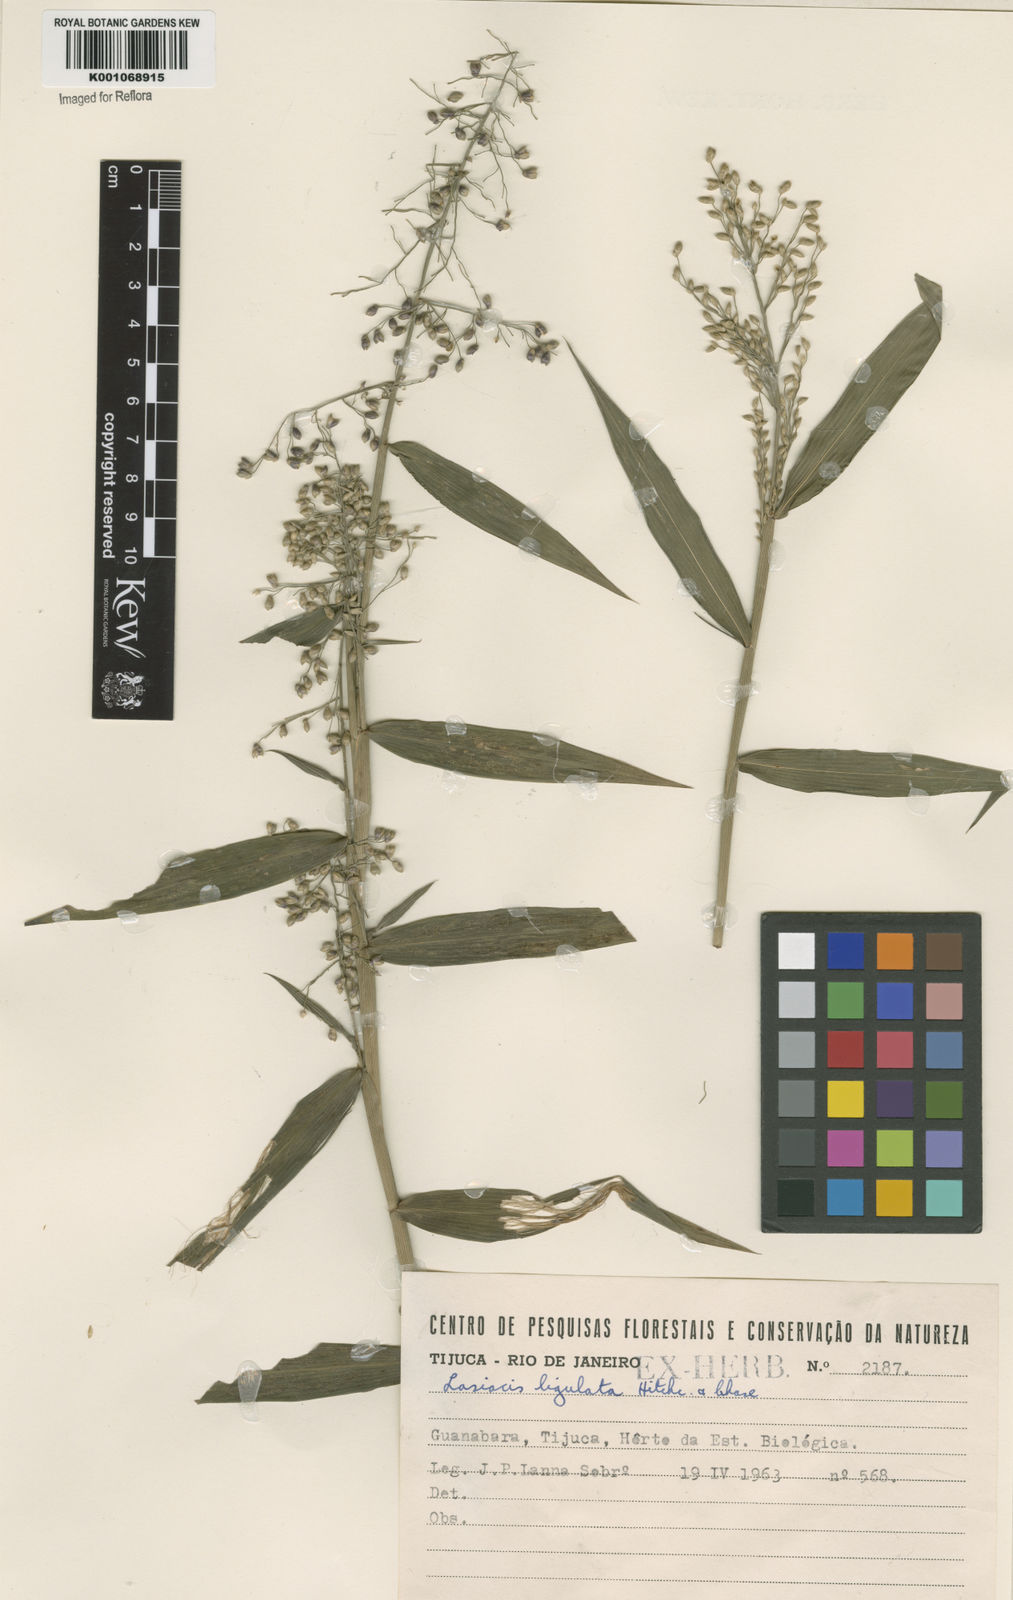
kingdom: Plantae
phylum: Tracheophyta
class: Liliopsida
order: Poales
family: Poaceae
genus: Lasiacis
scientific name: Lasiacis ligulata
